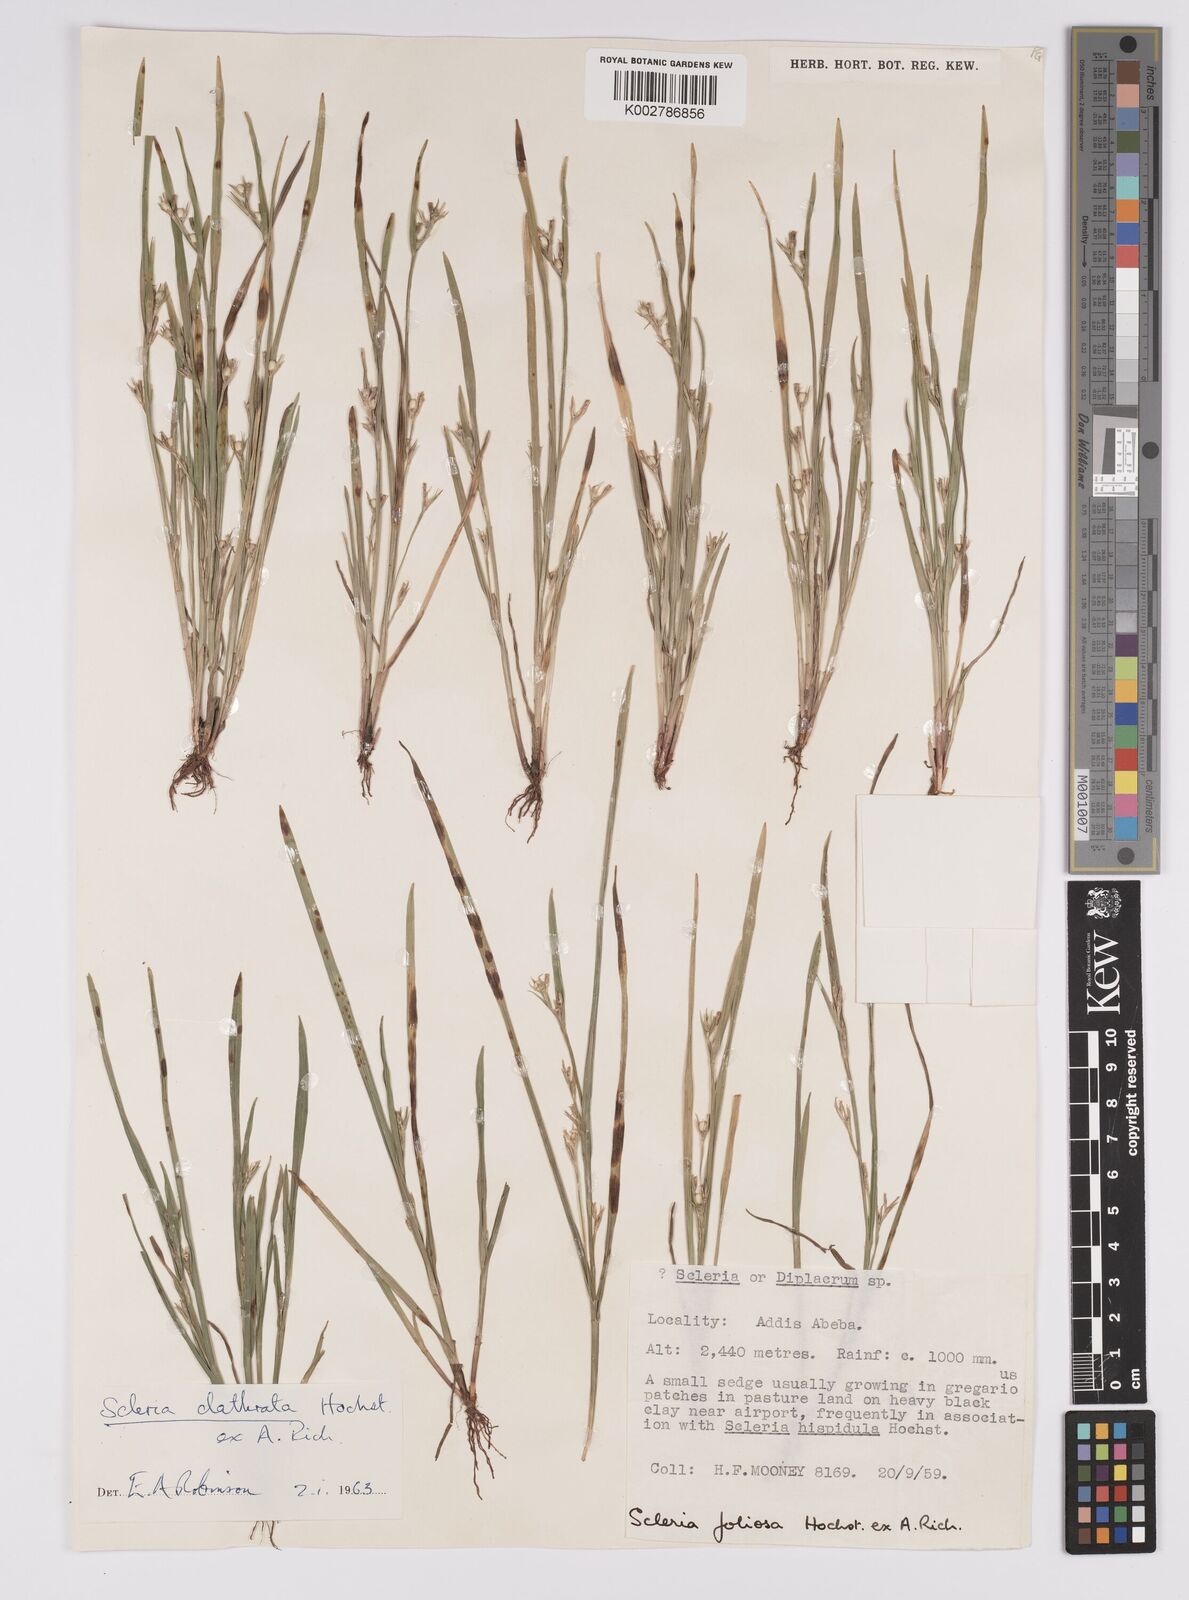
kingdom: Plantae
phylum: Tracheophyta
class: Liliopsida
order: Poales
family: Cyperaceae
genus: Scleria
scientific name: Scleria clathrata
